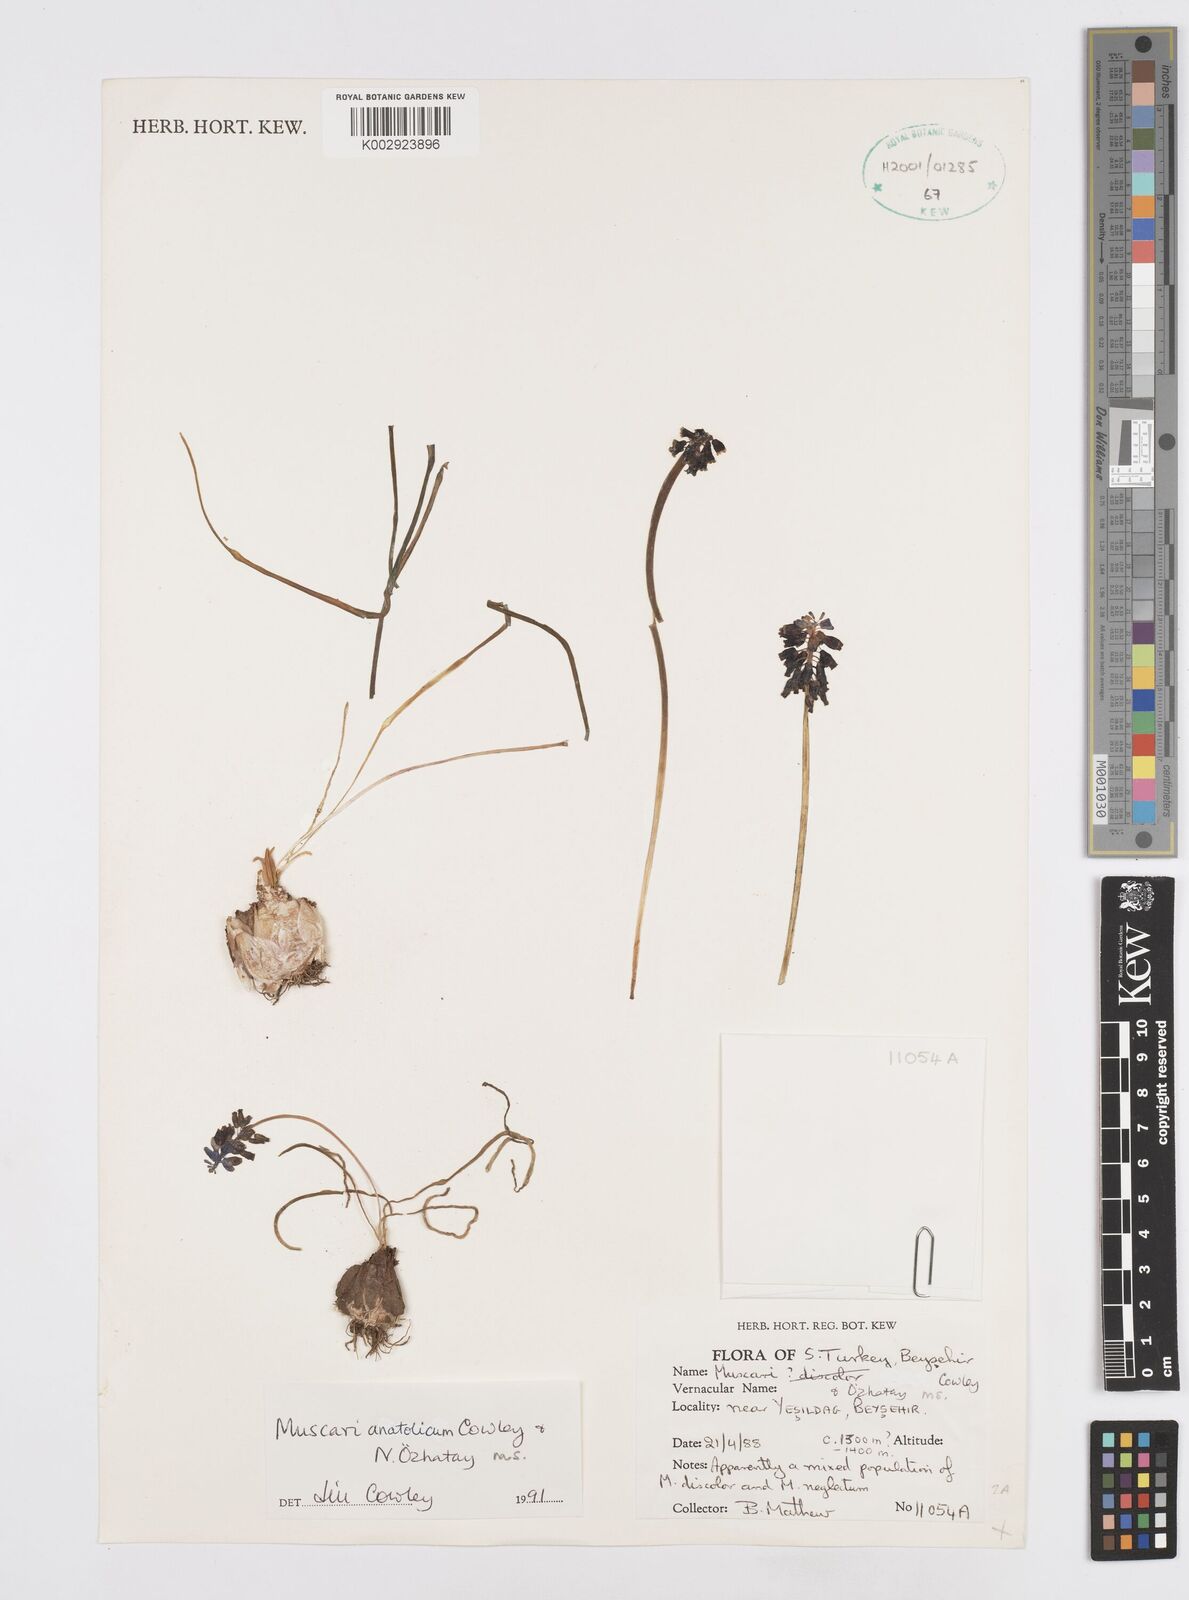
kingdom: Plantae
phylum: Tracheophyta
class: Liliopsida
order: Asparagales
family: Asparagaceae
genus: Muscari
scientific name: Muscari anatolicum
